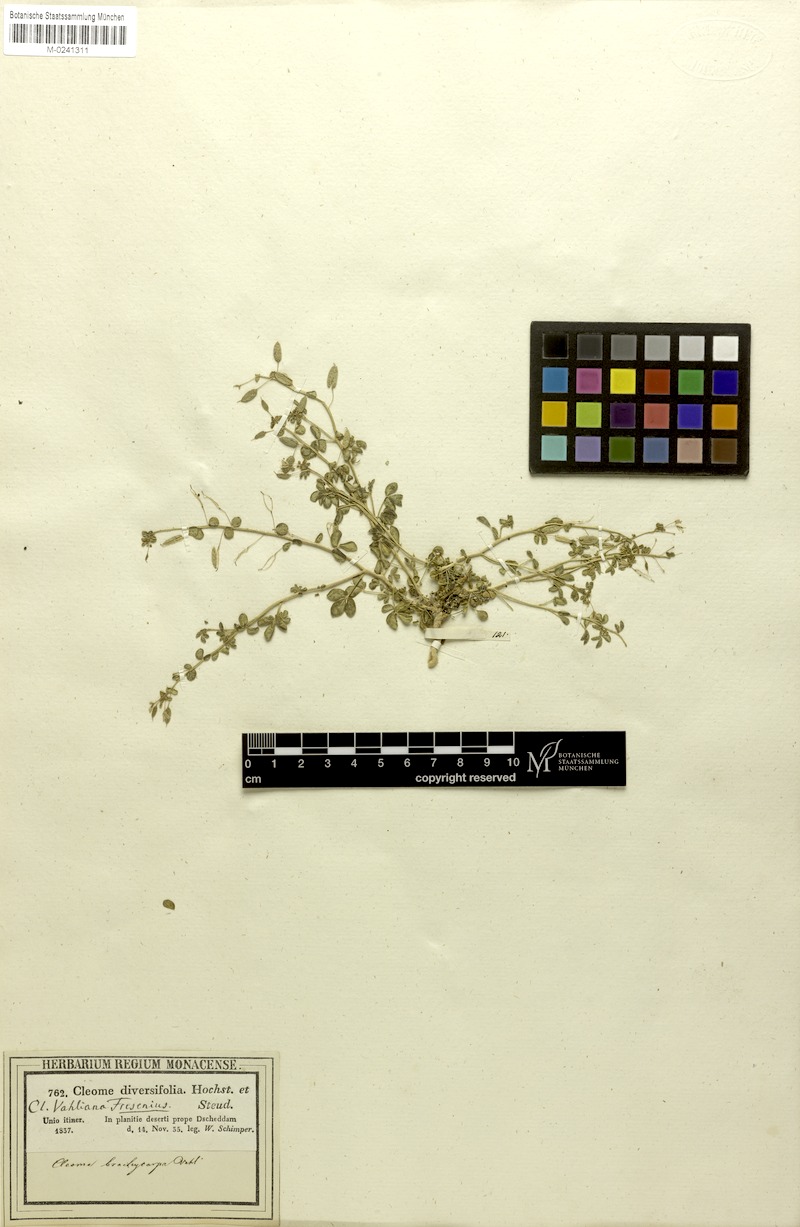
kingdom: Plantae
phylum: Tracheophyta
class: Magnoliopsida
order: Brassicales
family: Cleomaceae
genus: Stylidocleome
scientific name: Stylidocleome brachycarpa
